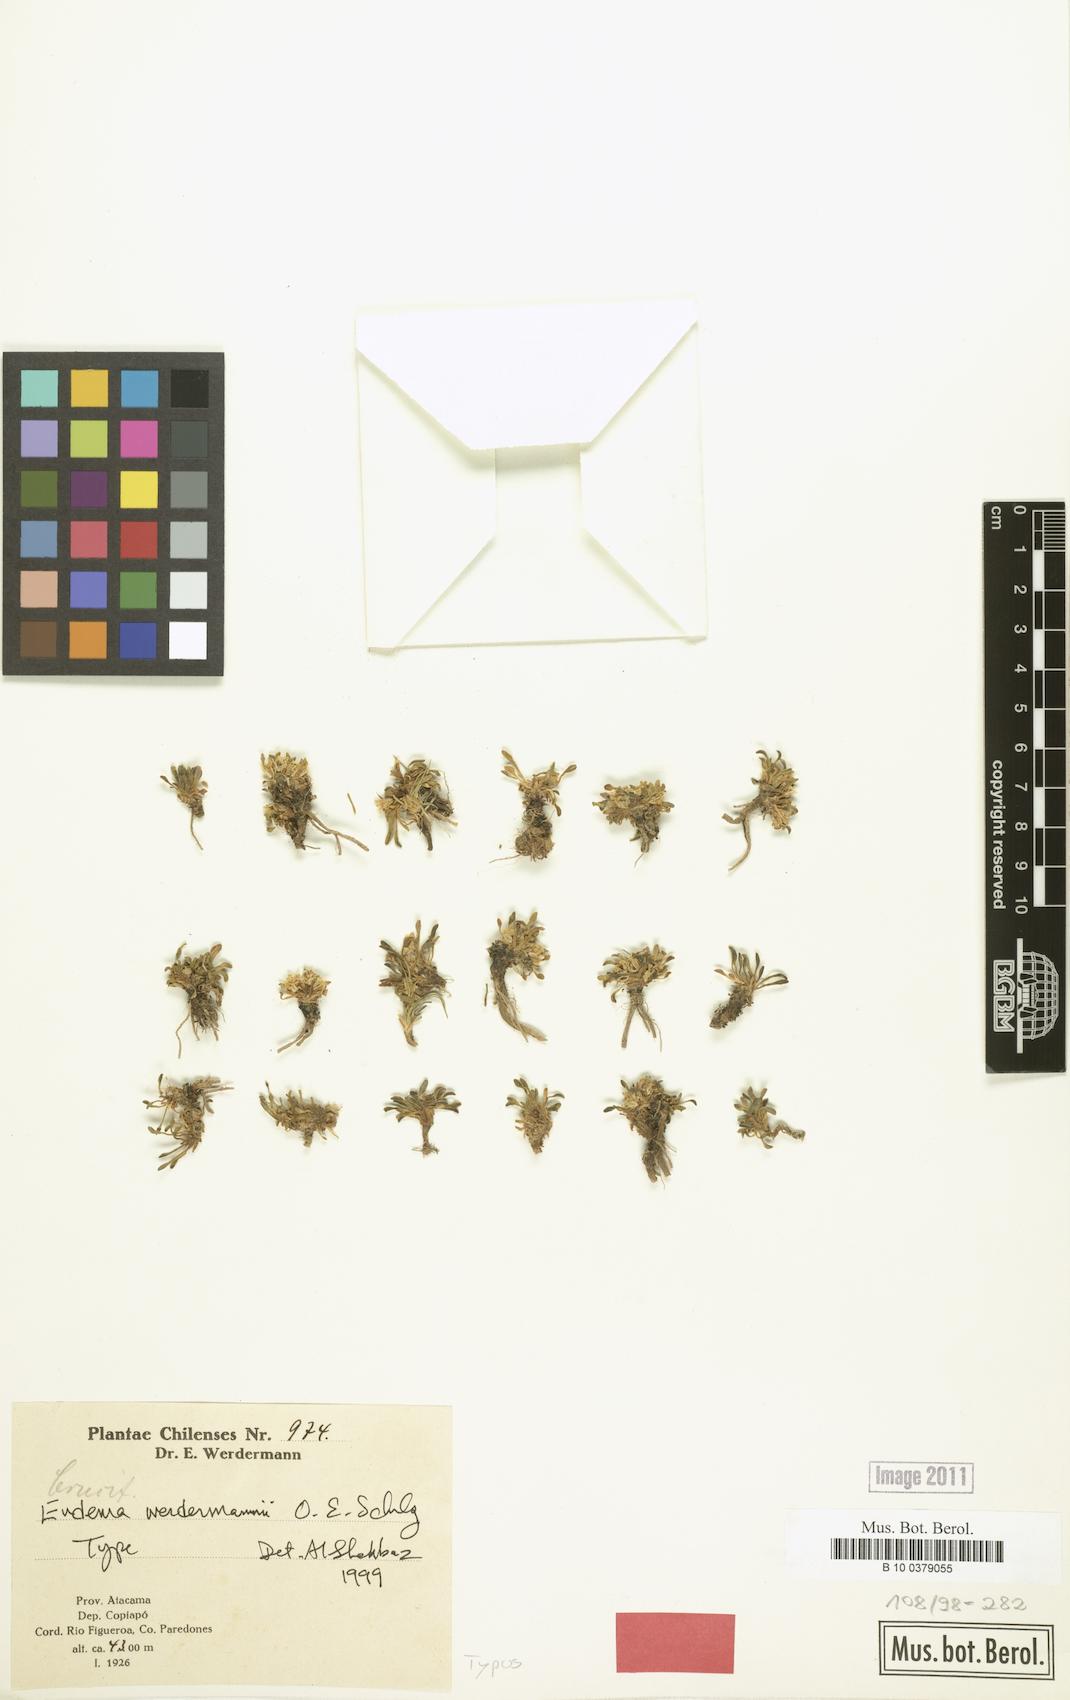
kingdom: Plantae
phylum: Tracheophyta
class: Magnoliopsida
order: Brassicales
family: Brassicaceae
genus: Petroravenia
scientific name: Petroravenia werdermannii
